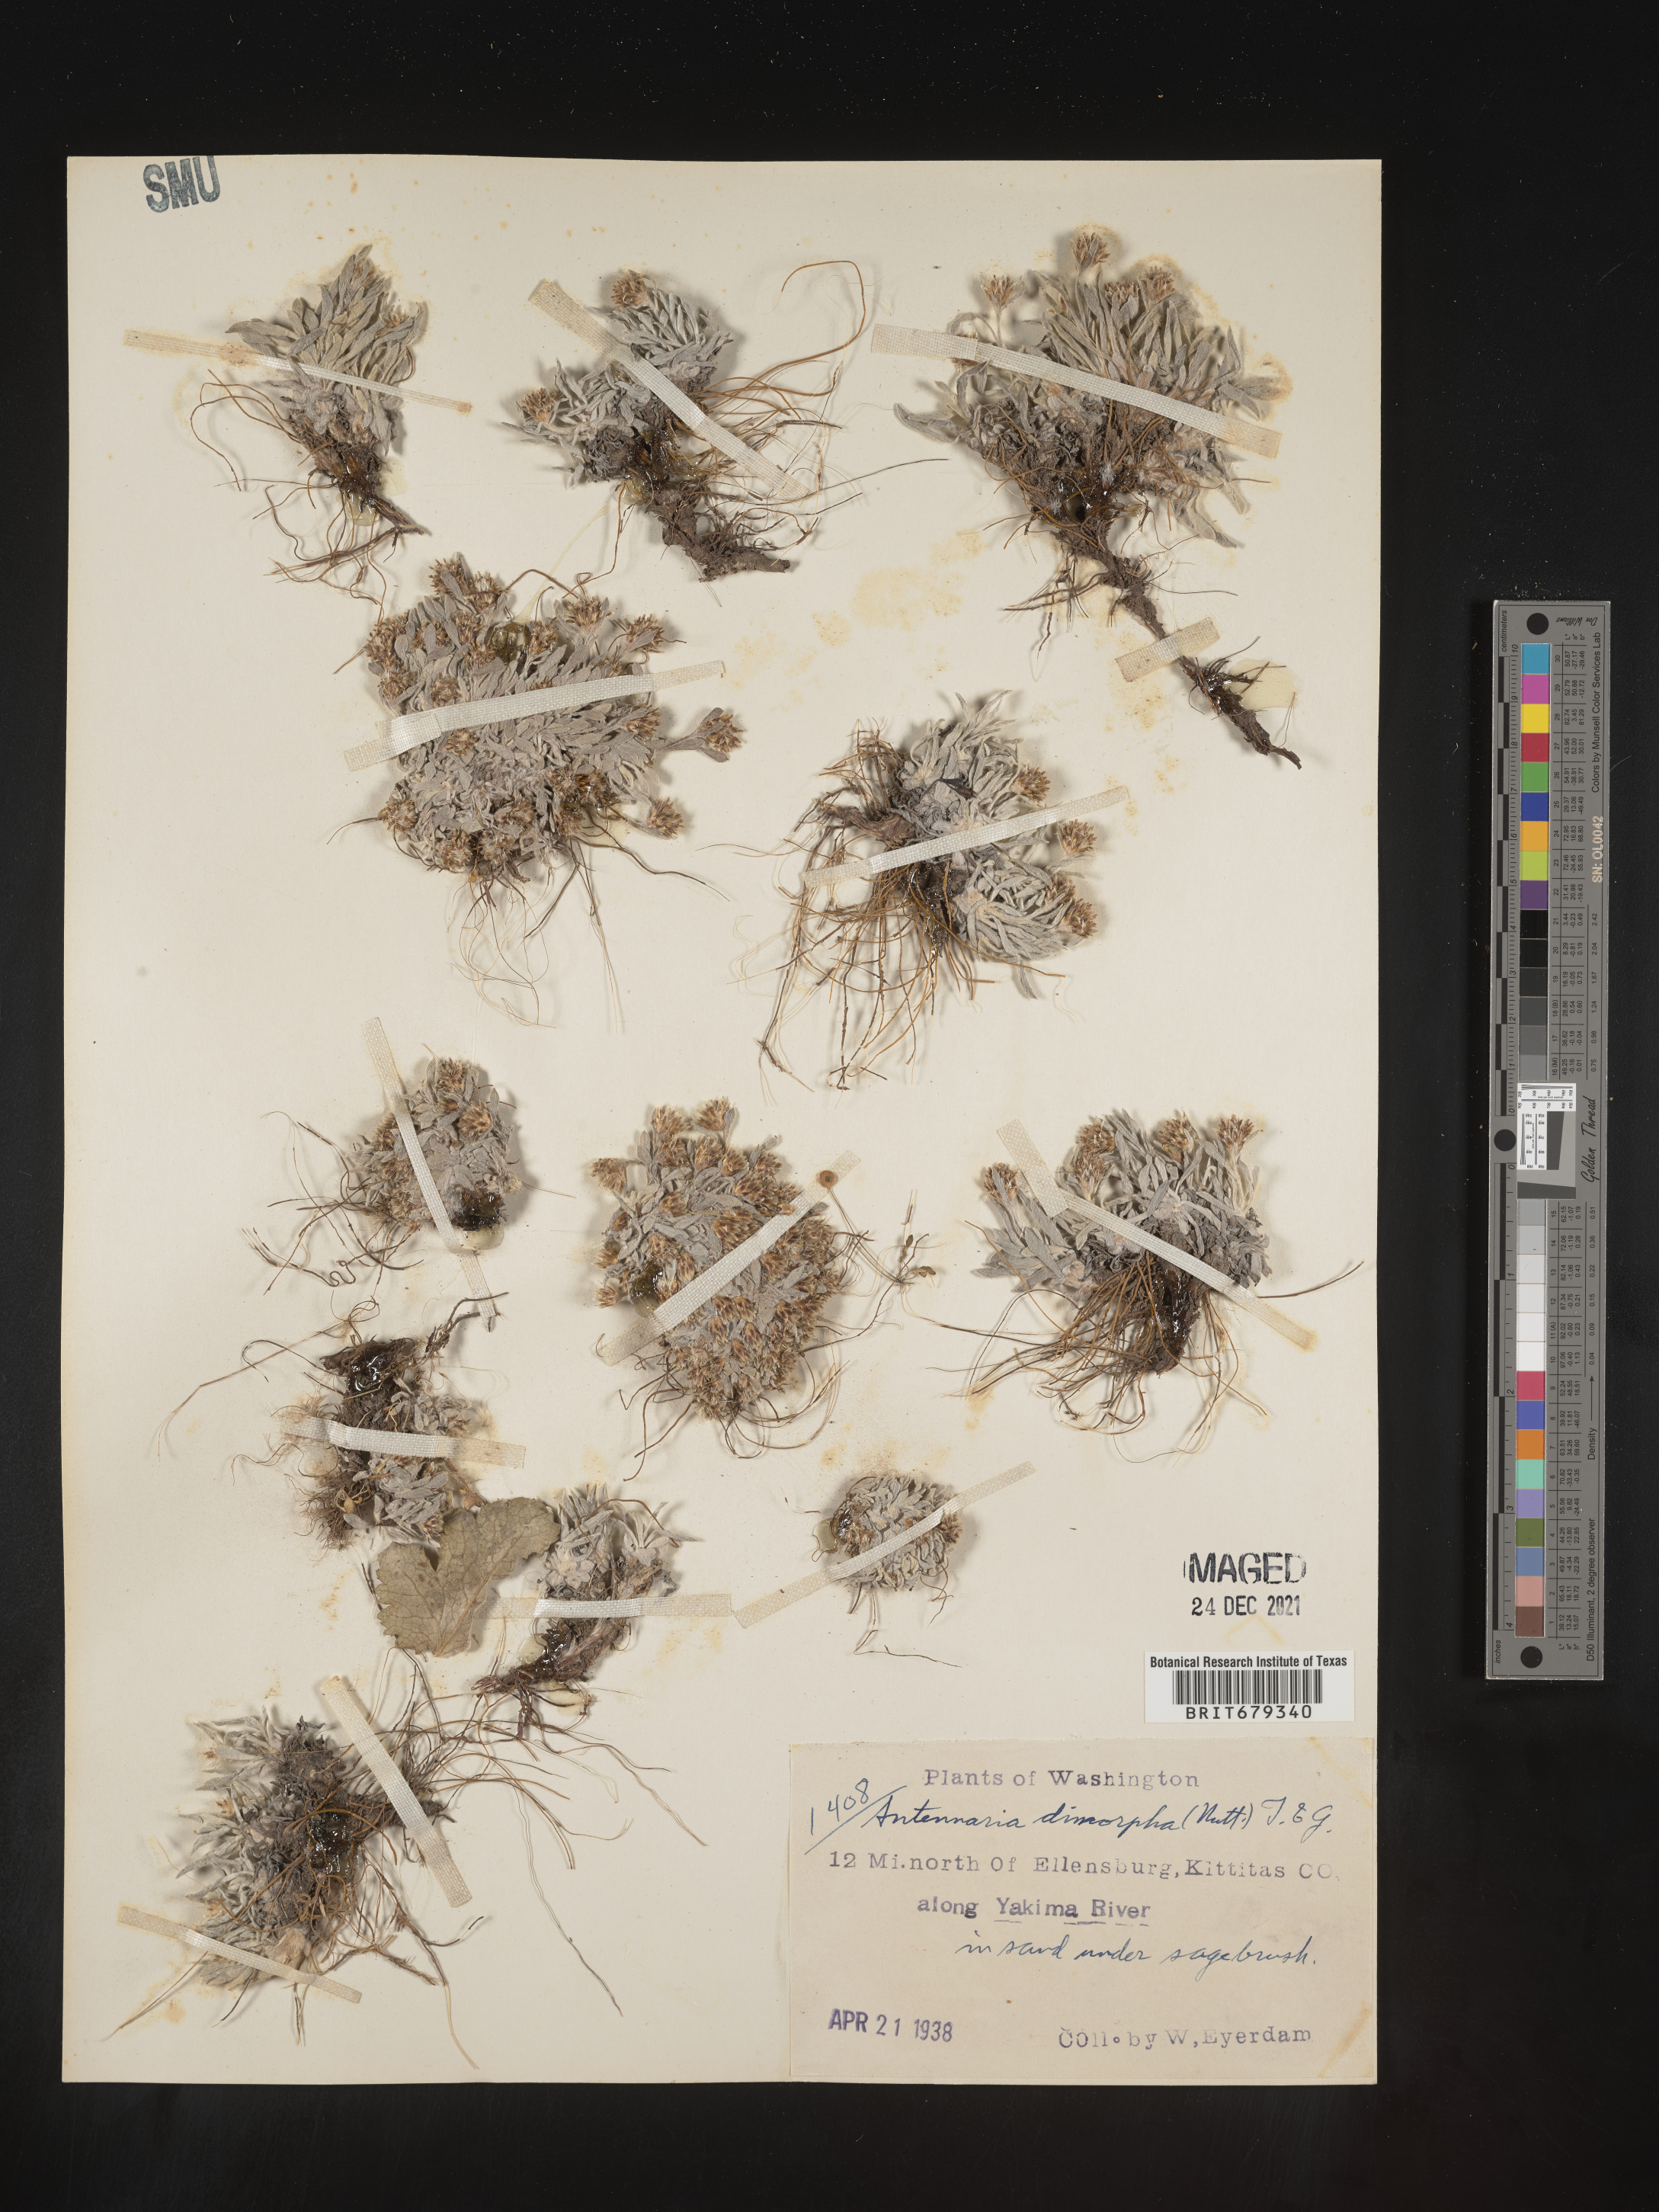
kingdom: Plantae
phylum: Tracheophyta
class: Magnoliopsida
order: Asterales
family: Asteraceae
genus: Antennaria
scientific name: Antennaria dimorpha
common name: Cushion pussytoes
